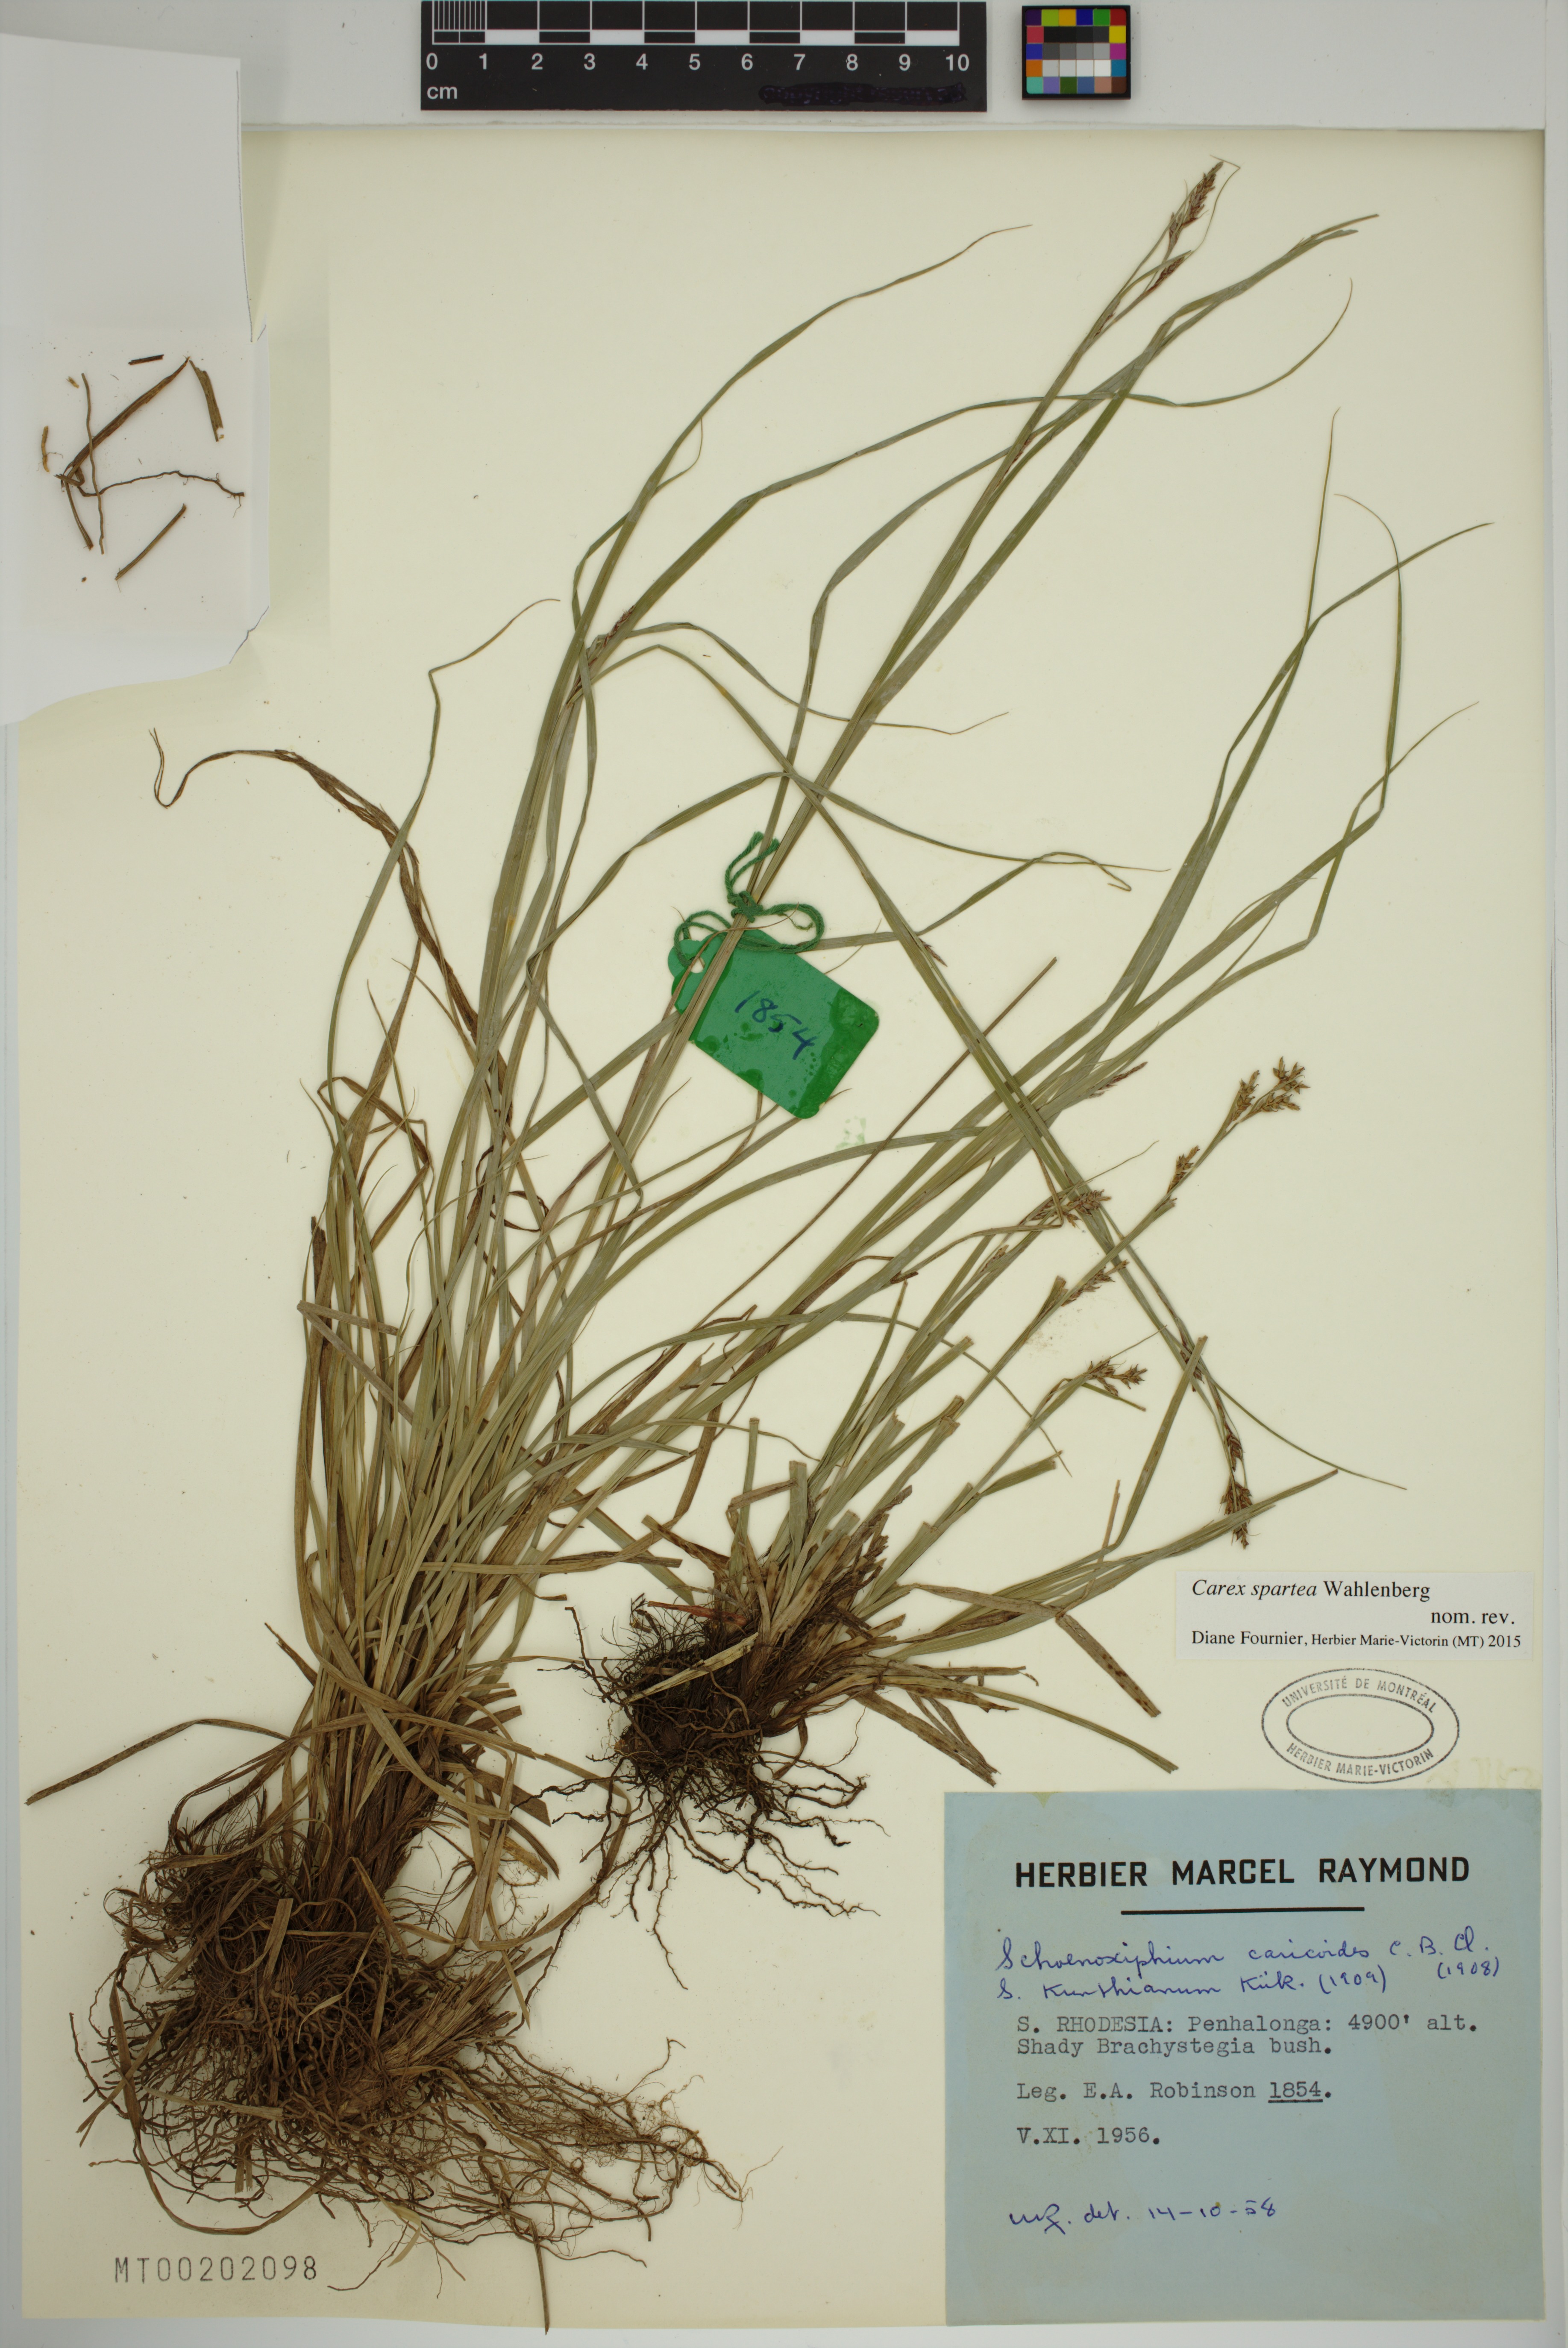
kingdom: Plantae
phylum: Tracheophyta
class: Liliopsida
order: Poales
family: Cyperaceae
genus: Carex
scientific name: Carex spartea
